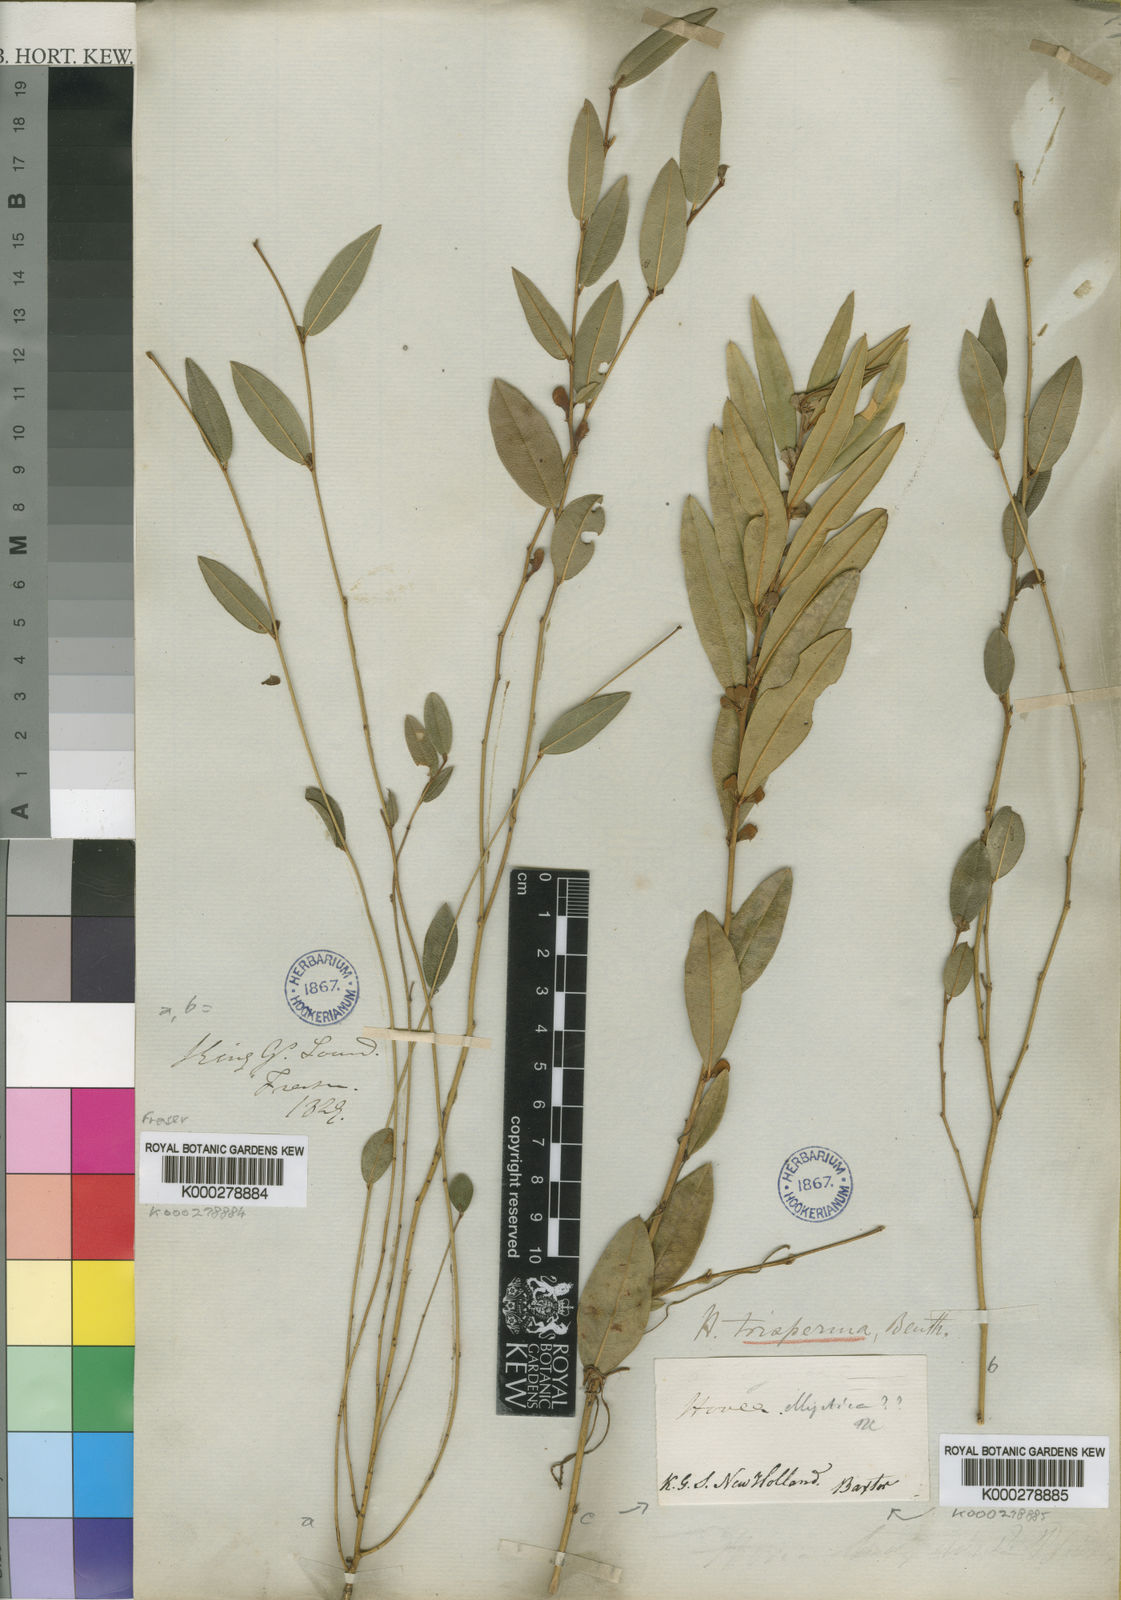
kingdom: Plantae
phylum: Tracheophyta
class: Magnoliopsida
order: Fabales
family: Fabaceae
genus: Hovea
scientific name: Hovea trisperma
